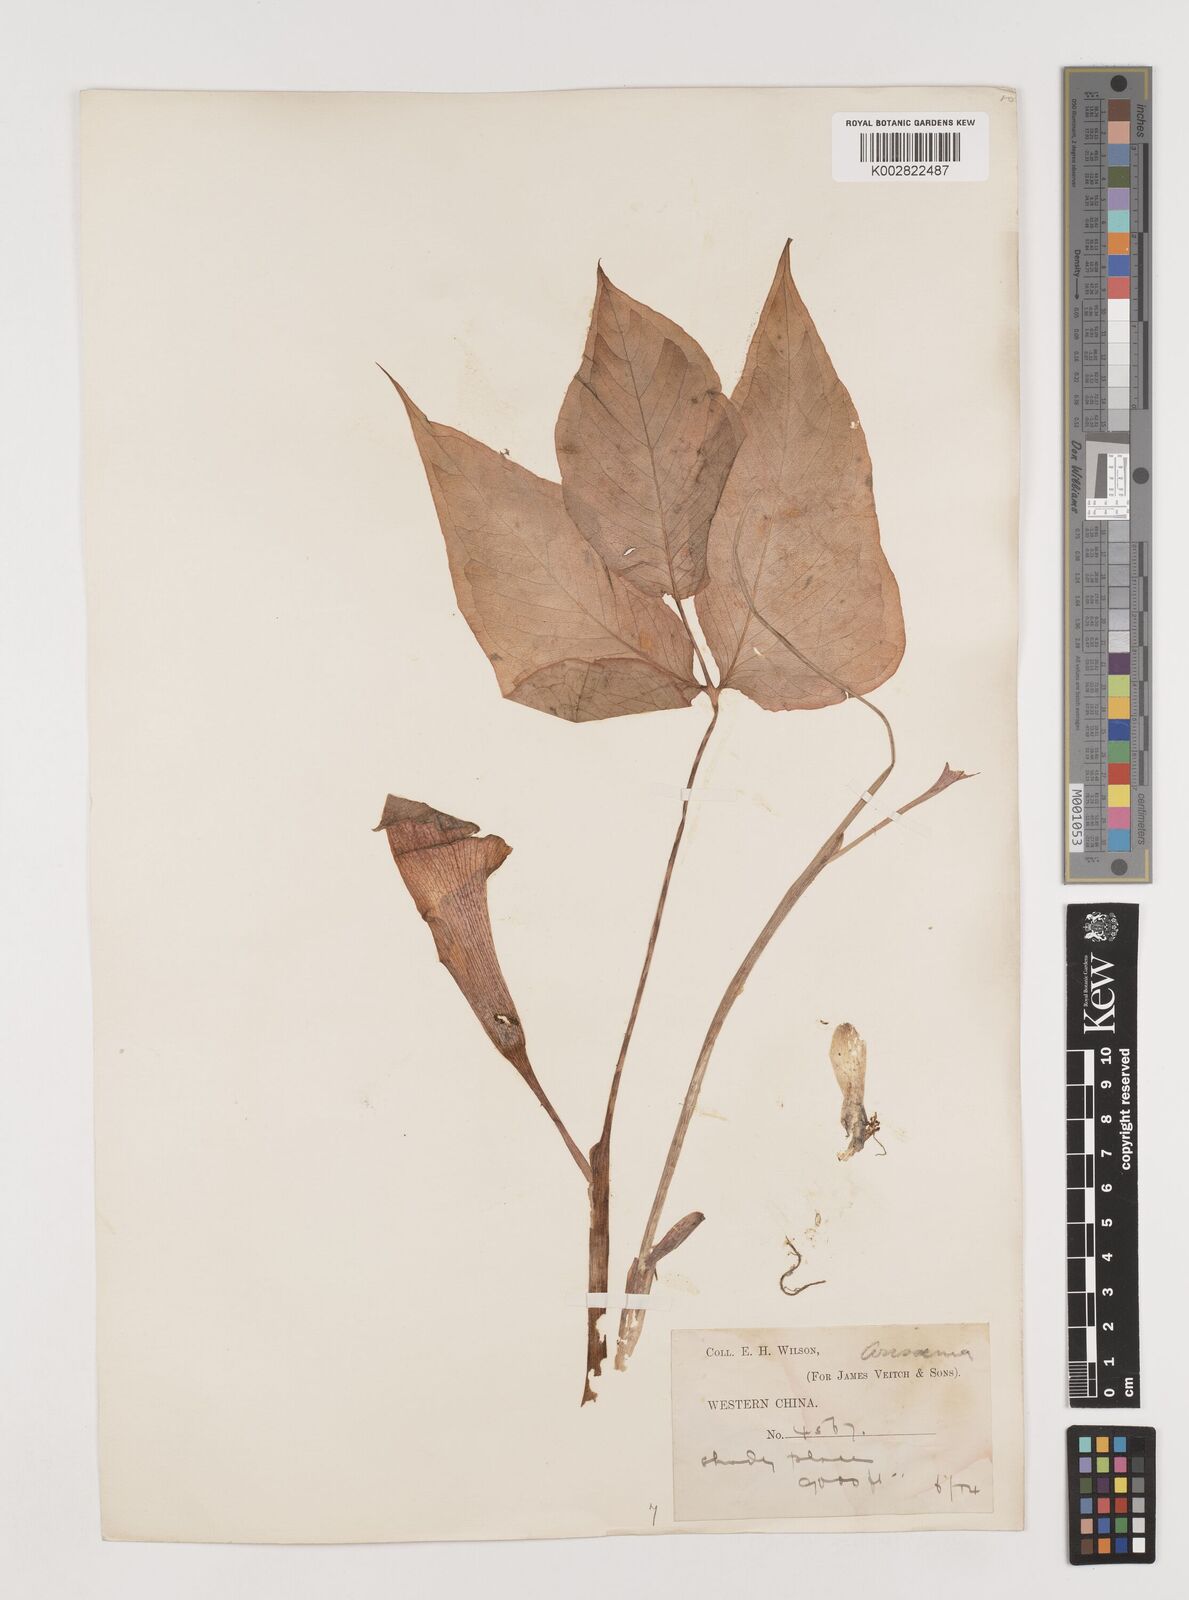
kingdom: Plantae
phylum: Tracheophyta
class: Liliopsida
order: Alismatales
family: Araceae
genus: Arisaema
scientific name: Arisaema lobatum
